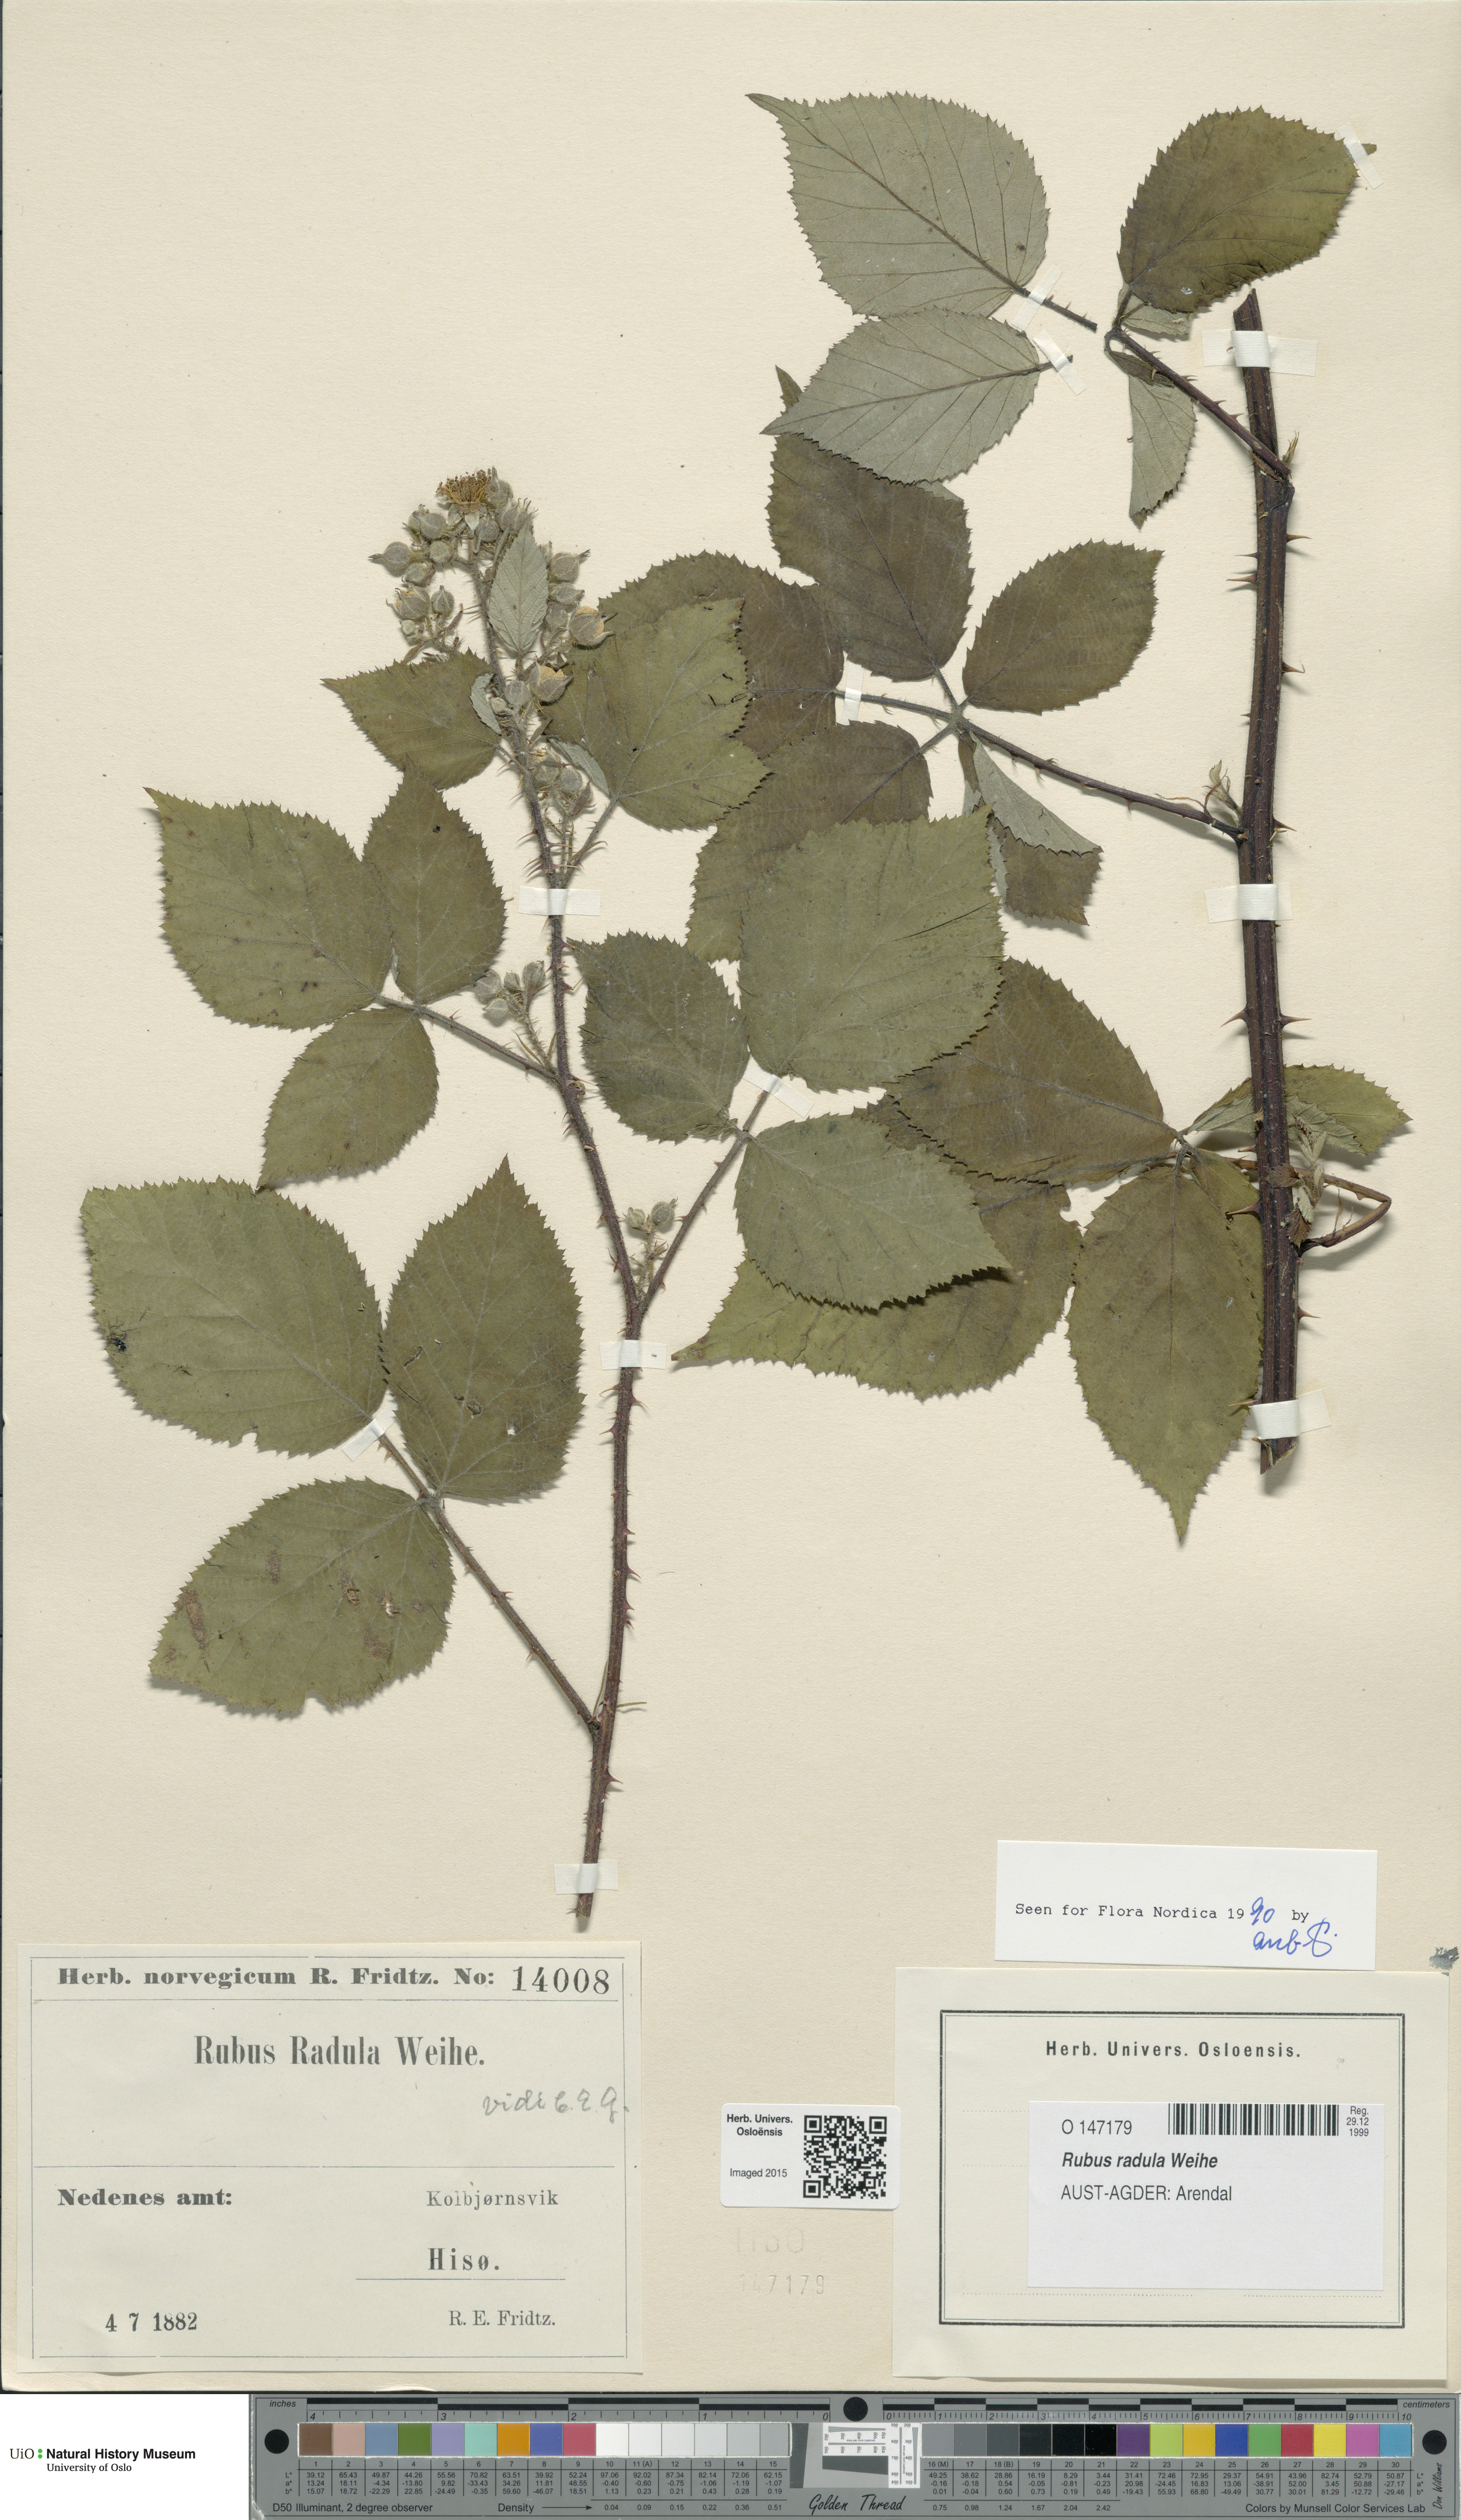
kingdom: Plantae
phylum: Tracheophyta
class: Magnoliopsida
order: Rosales
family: Rosaceae
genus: Rubus
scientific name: Rubus radula
